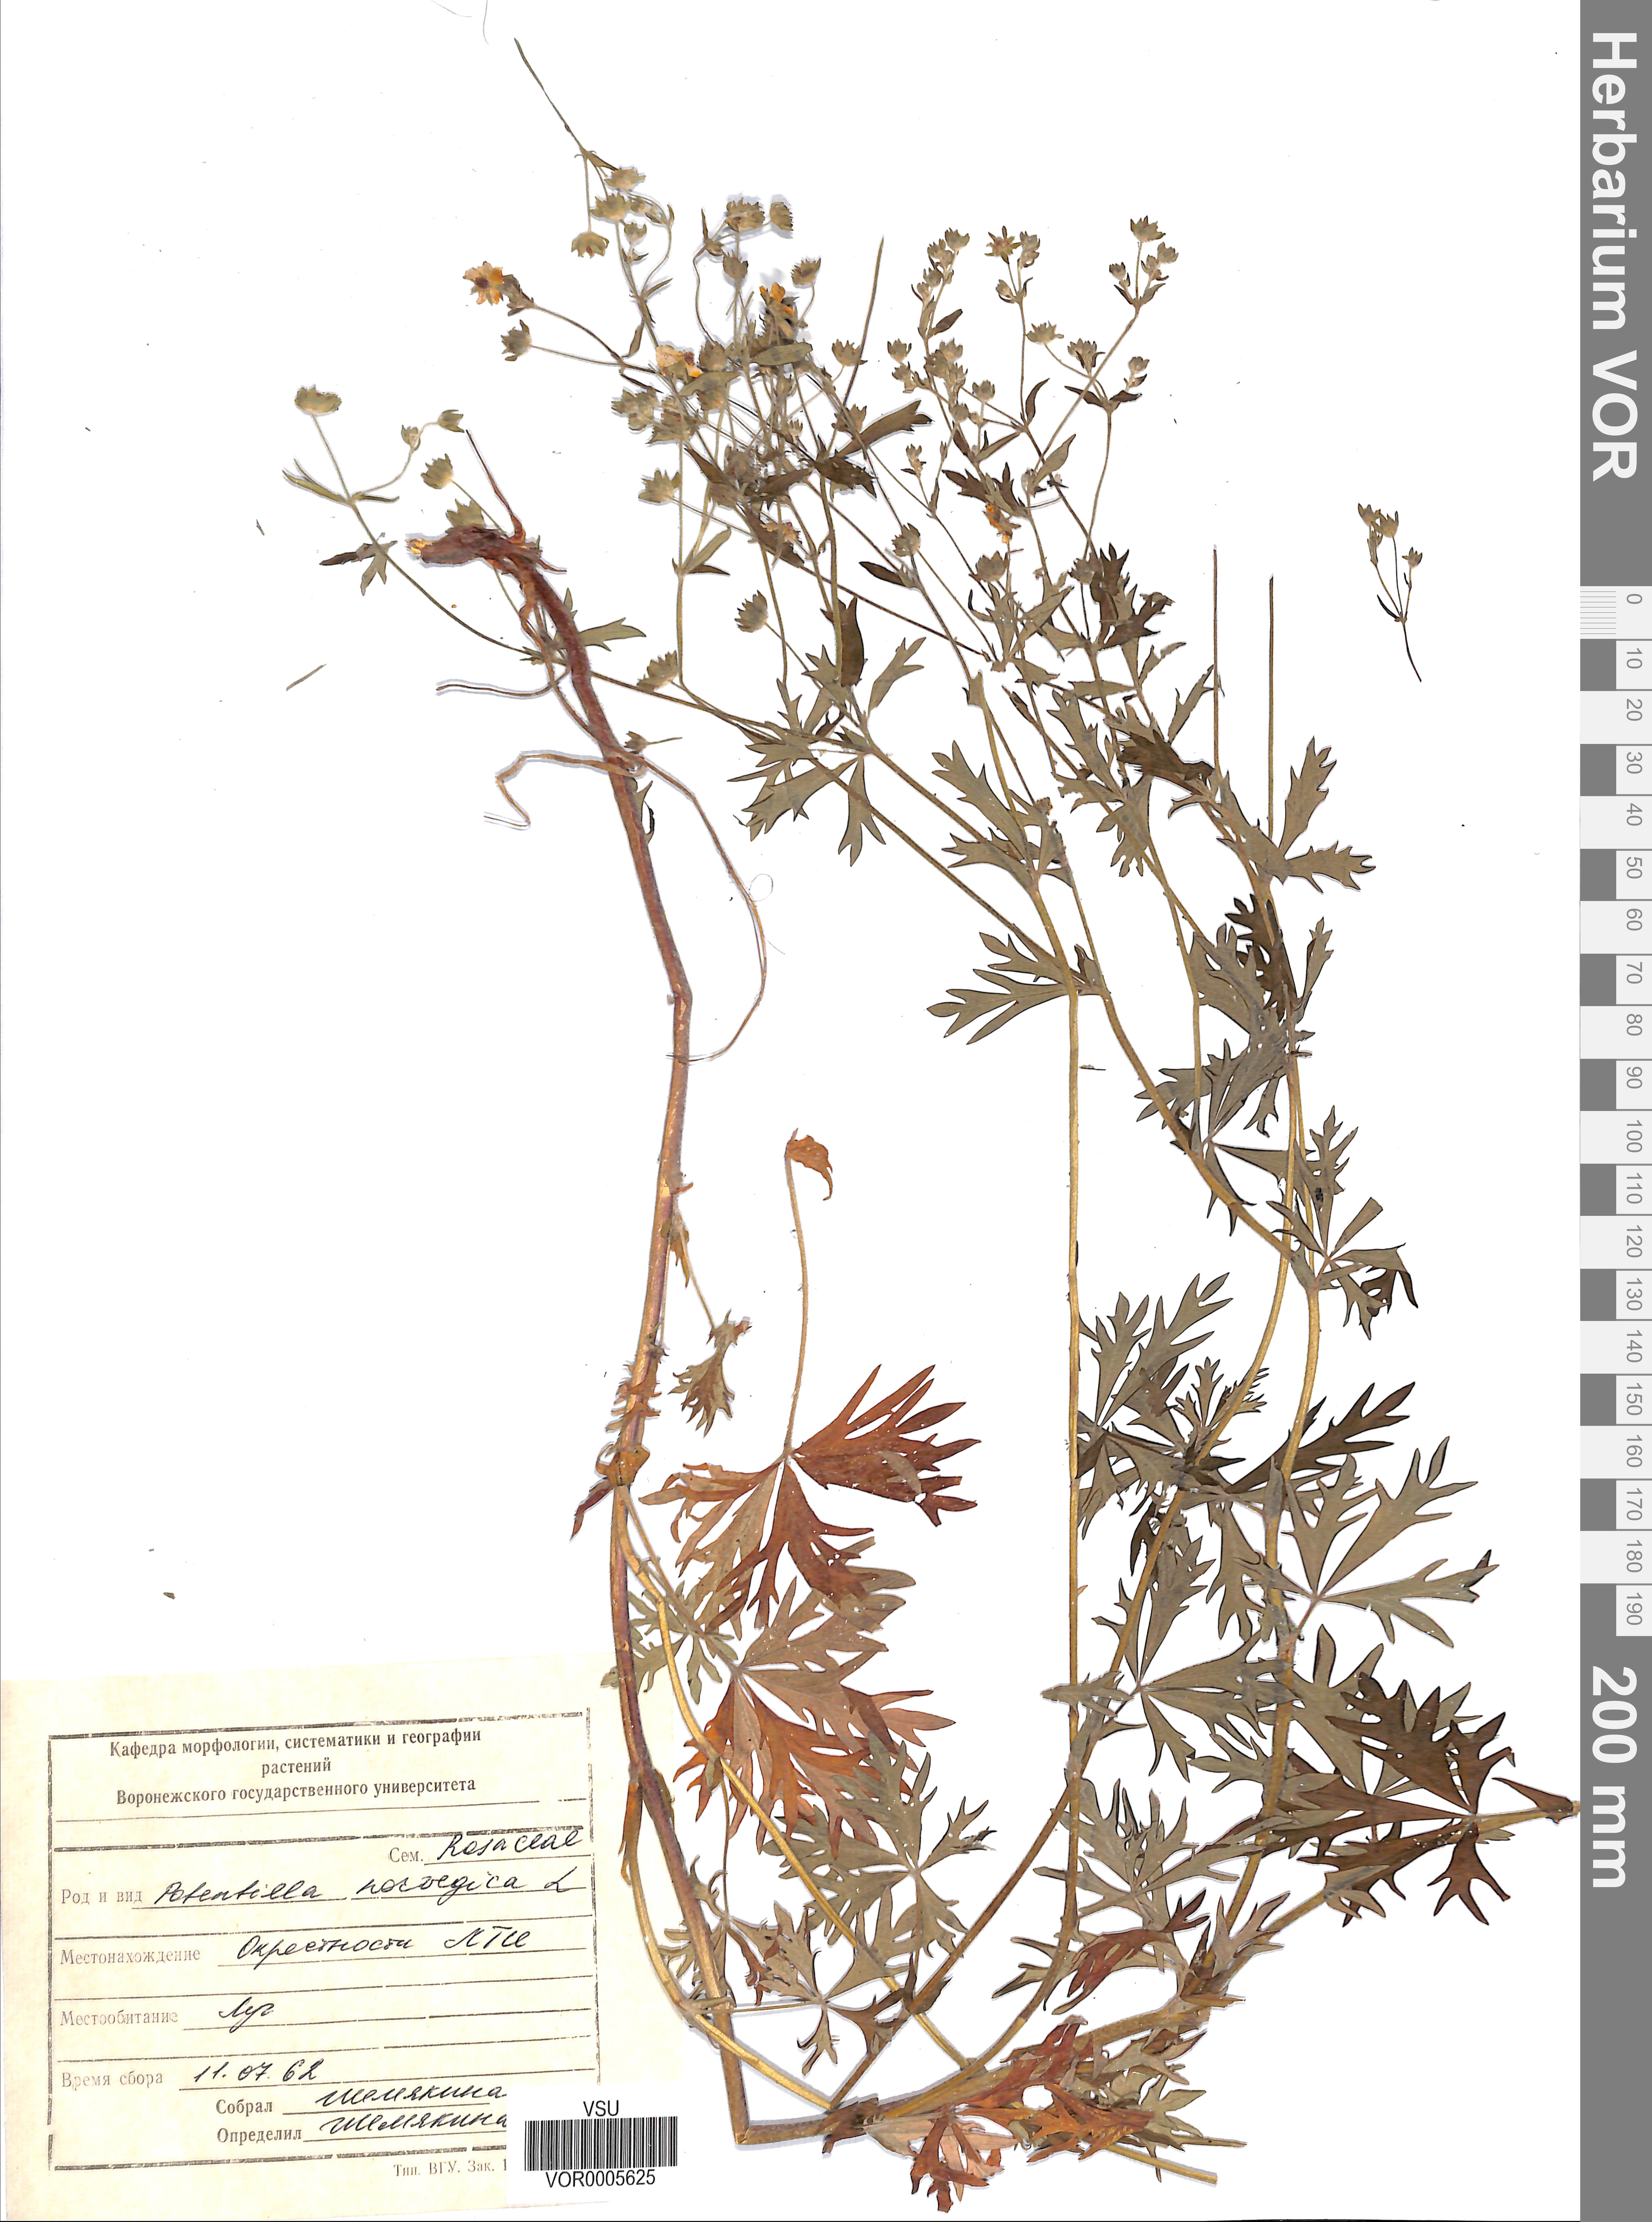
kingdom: Plantae
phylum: Tracheophyta
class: Magnoliopsida
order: Rosales
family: Rosaceae
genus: Potentilla
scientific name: Potentilla erecta
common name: Tormentil
